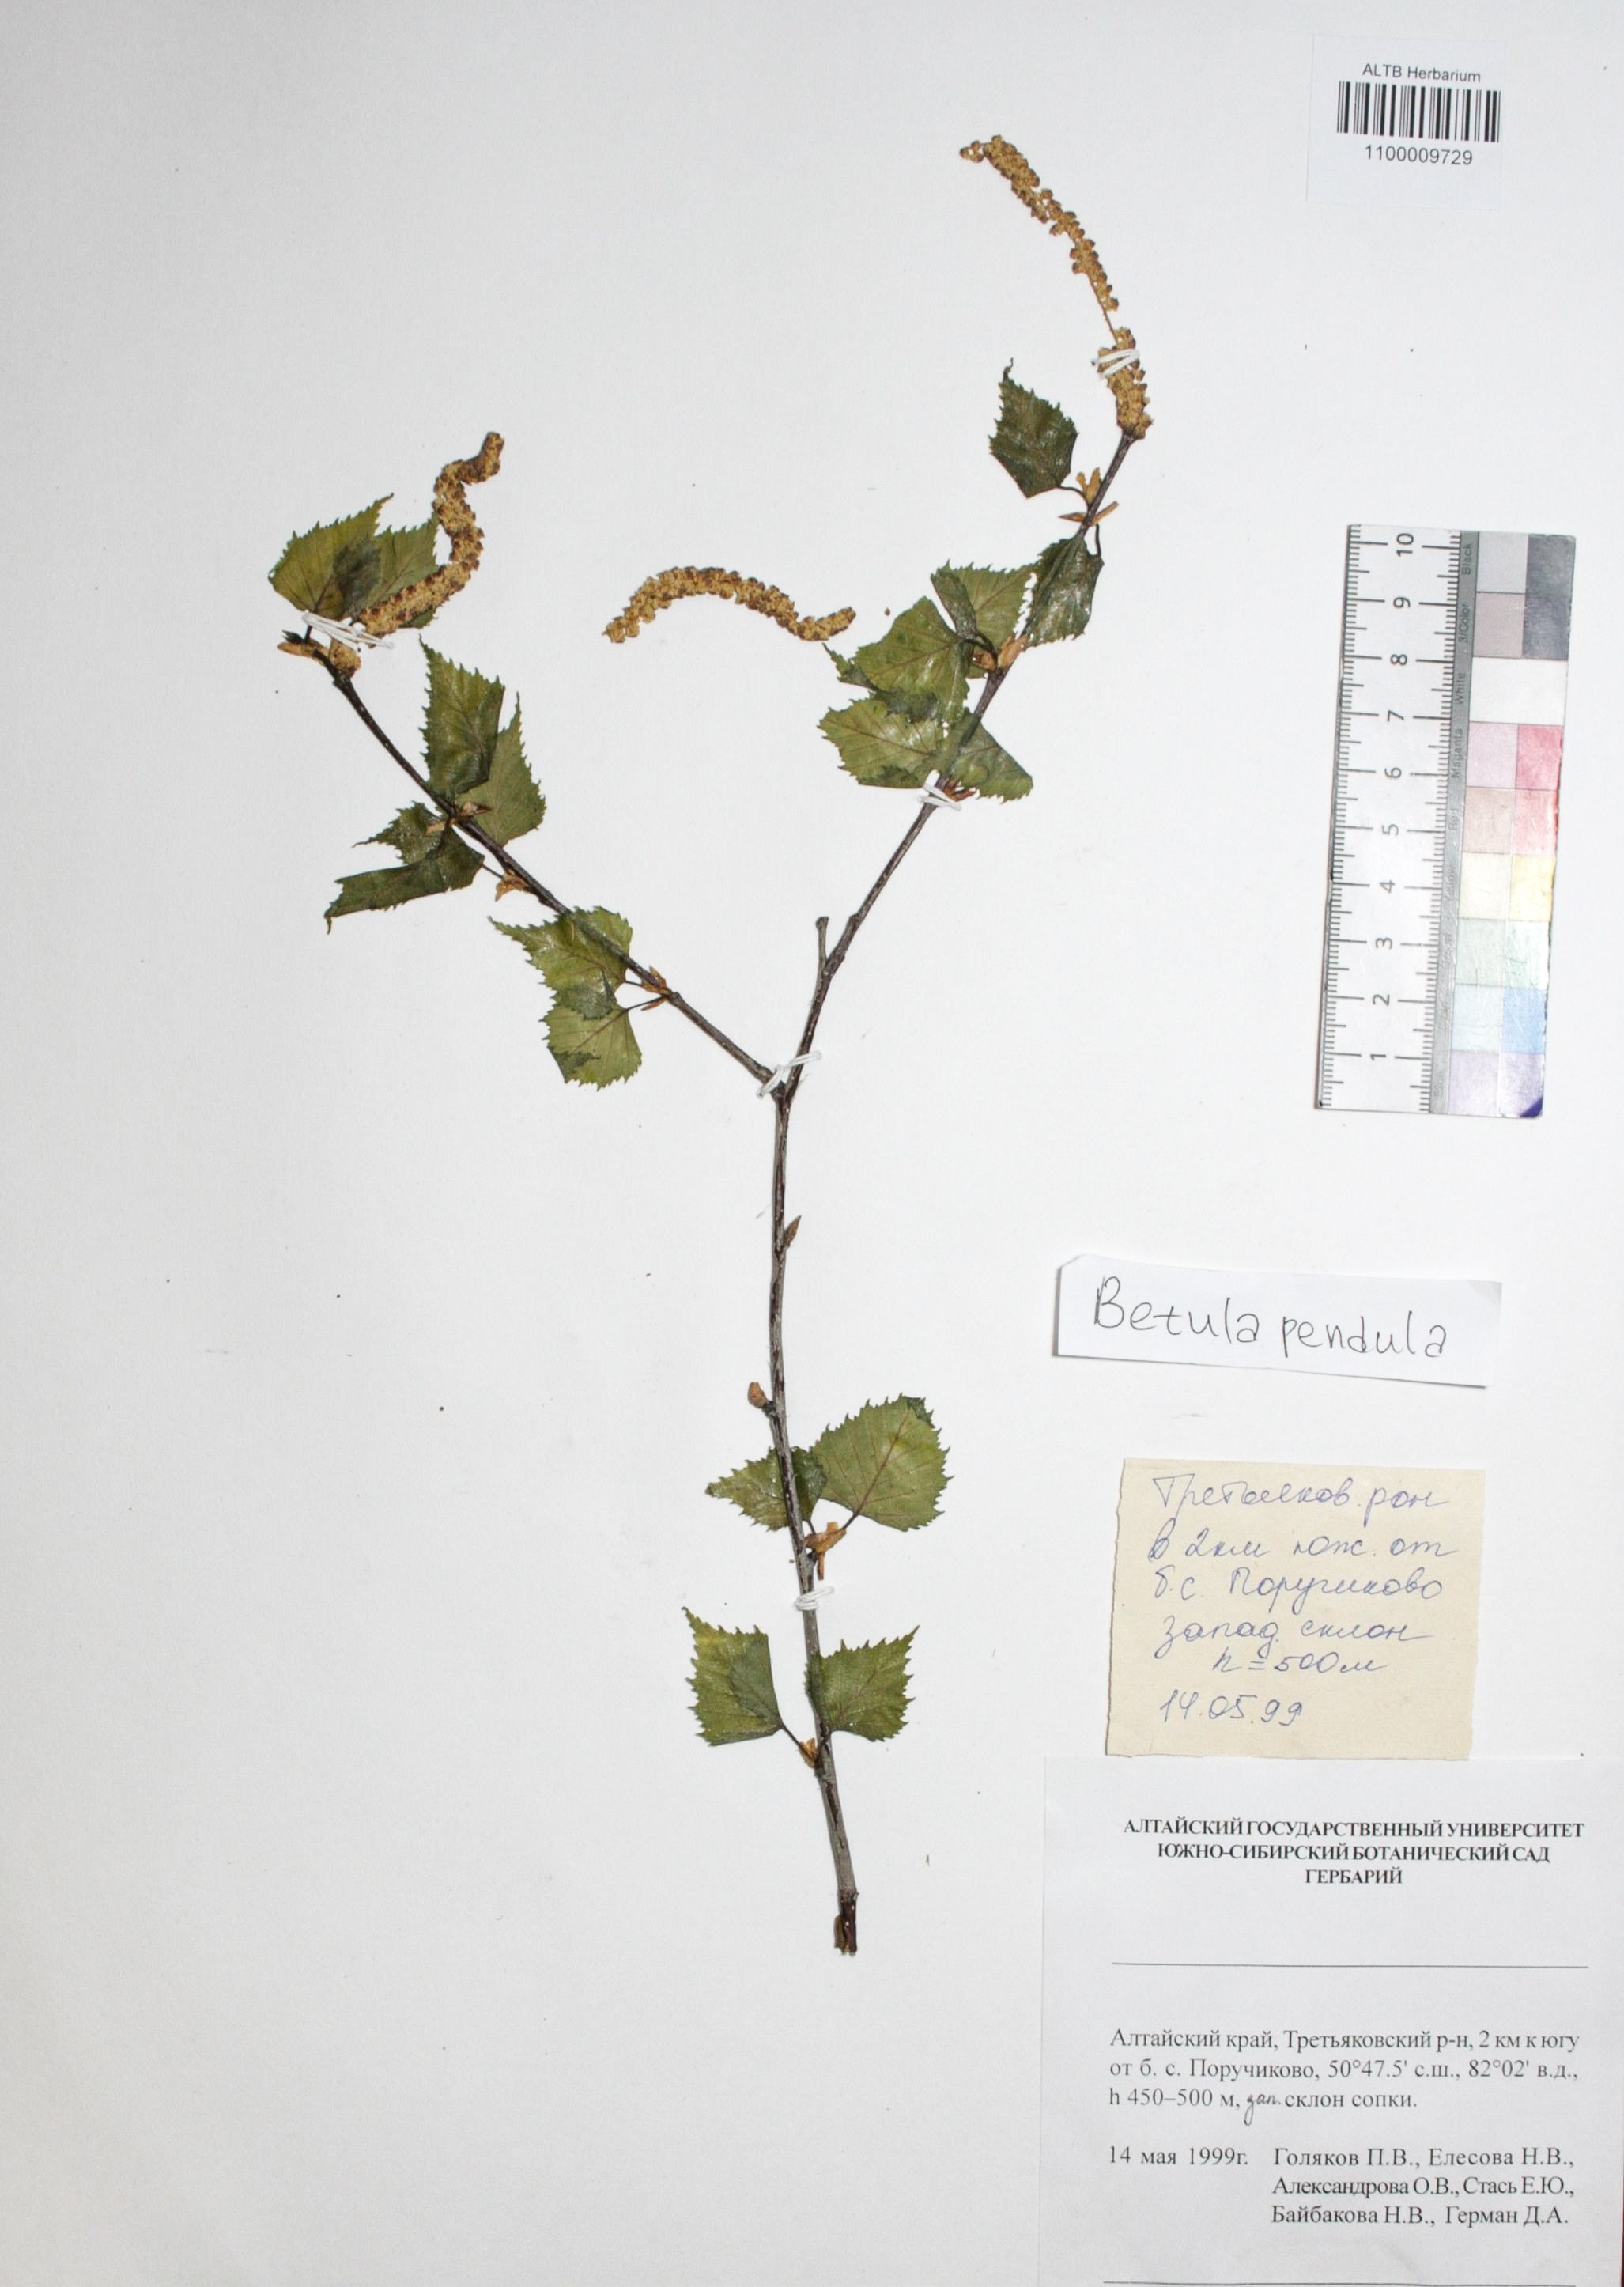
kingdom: Plantae
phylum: Tracheophyta
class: Magnoliopsida
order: Fagales
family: Betulaceae
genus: Betula
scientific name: Betula pendula
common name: Silver birch
